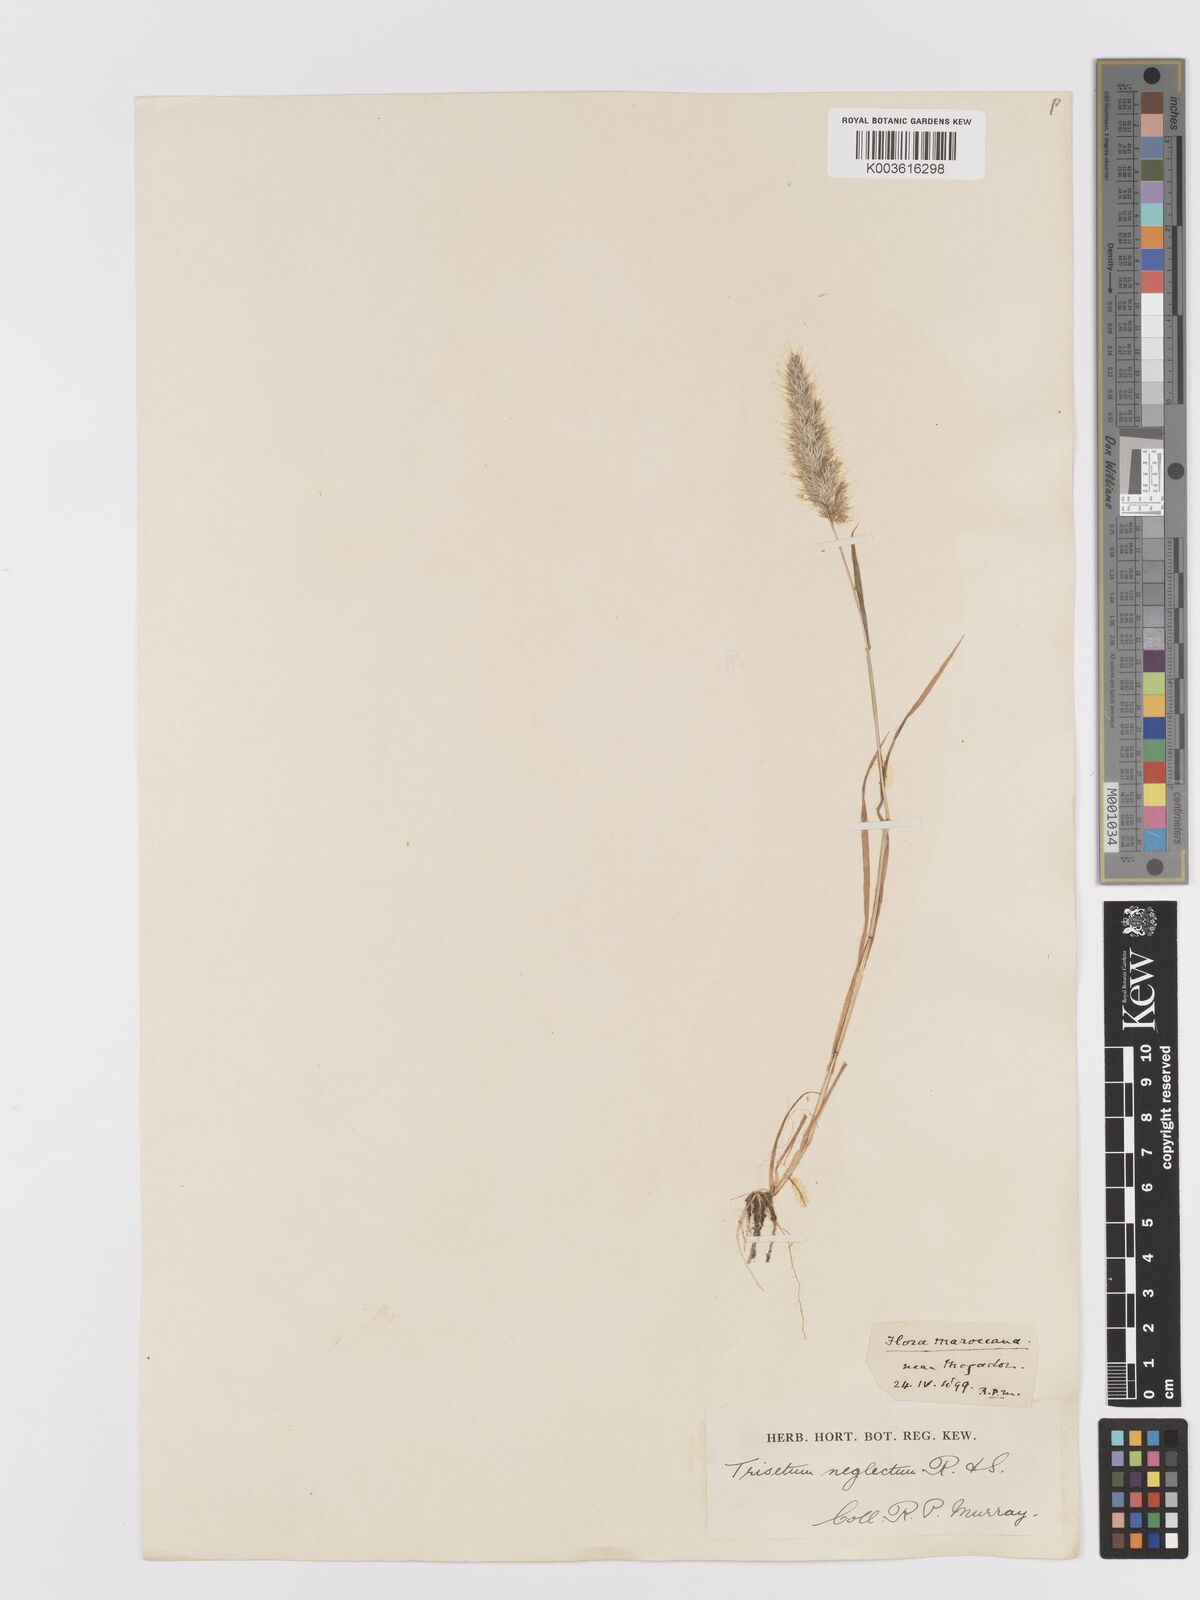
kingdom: Plantae
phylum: Tracheophyta
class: Liliopsida
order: Poales
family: Poaceae
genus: Trisetaria
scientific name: Trisetaria panicea
